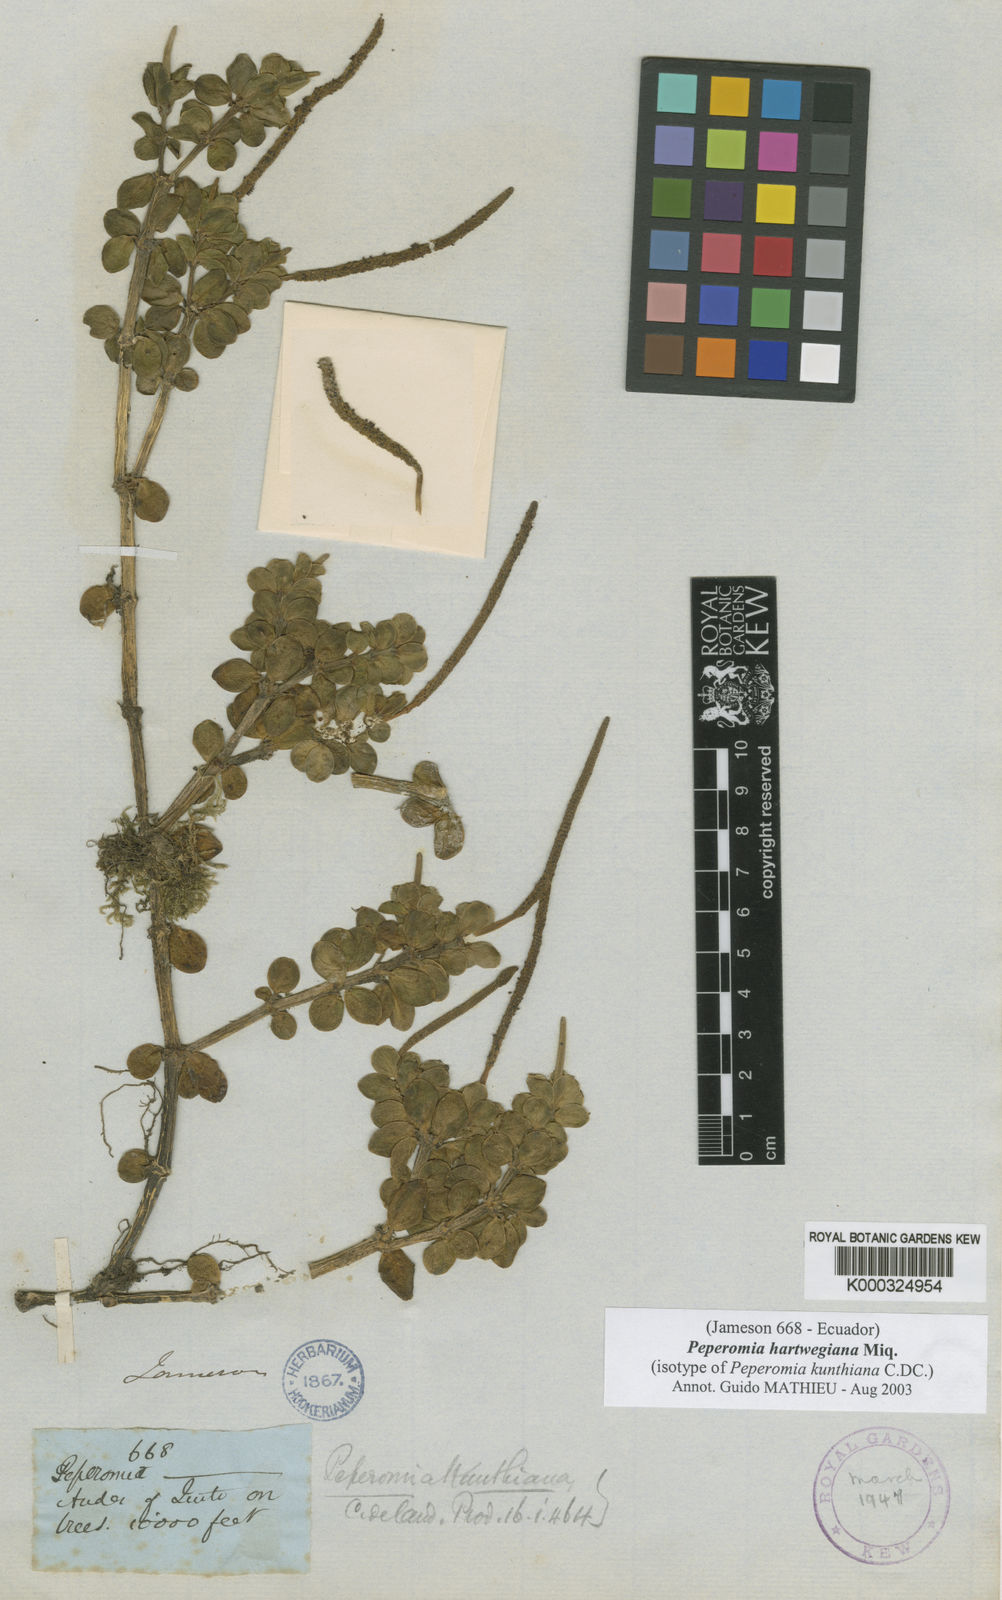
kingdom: Plantae
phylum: Tracheophyta
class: Magnoliopsida
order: Piperales
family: Piperaceae
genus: Peperomia
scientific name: Peperomia hartwegiana
